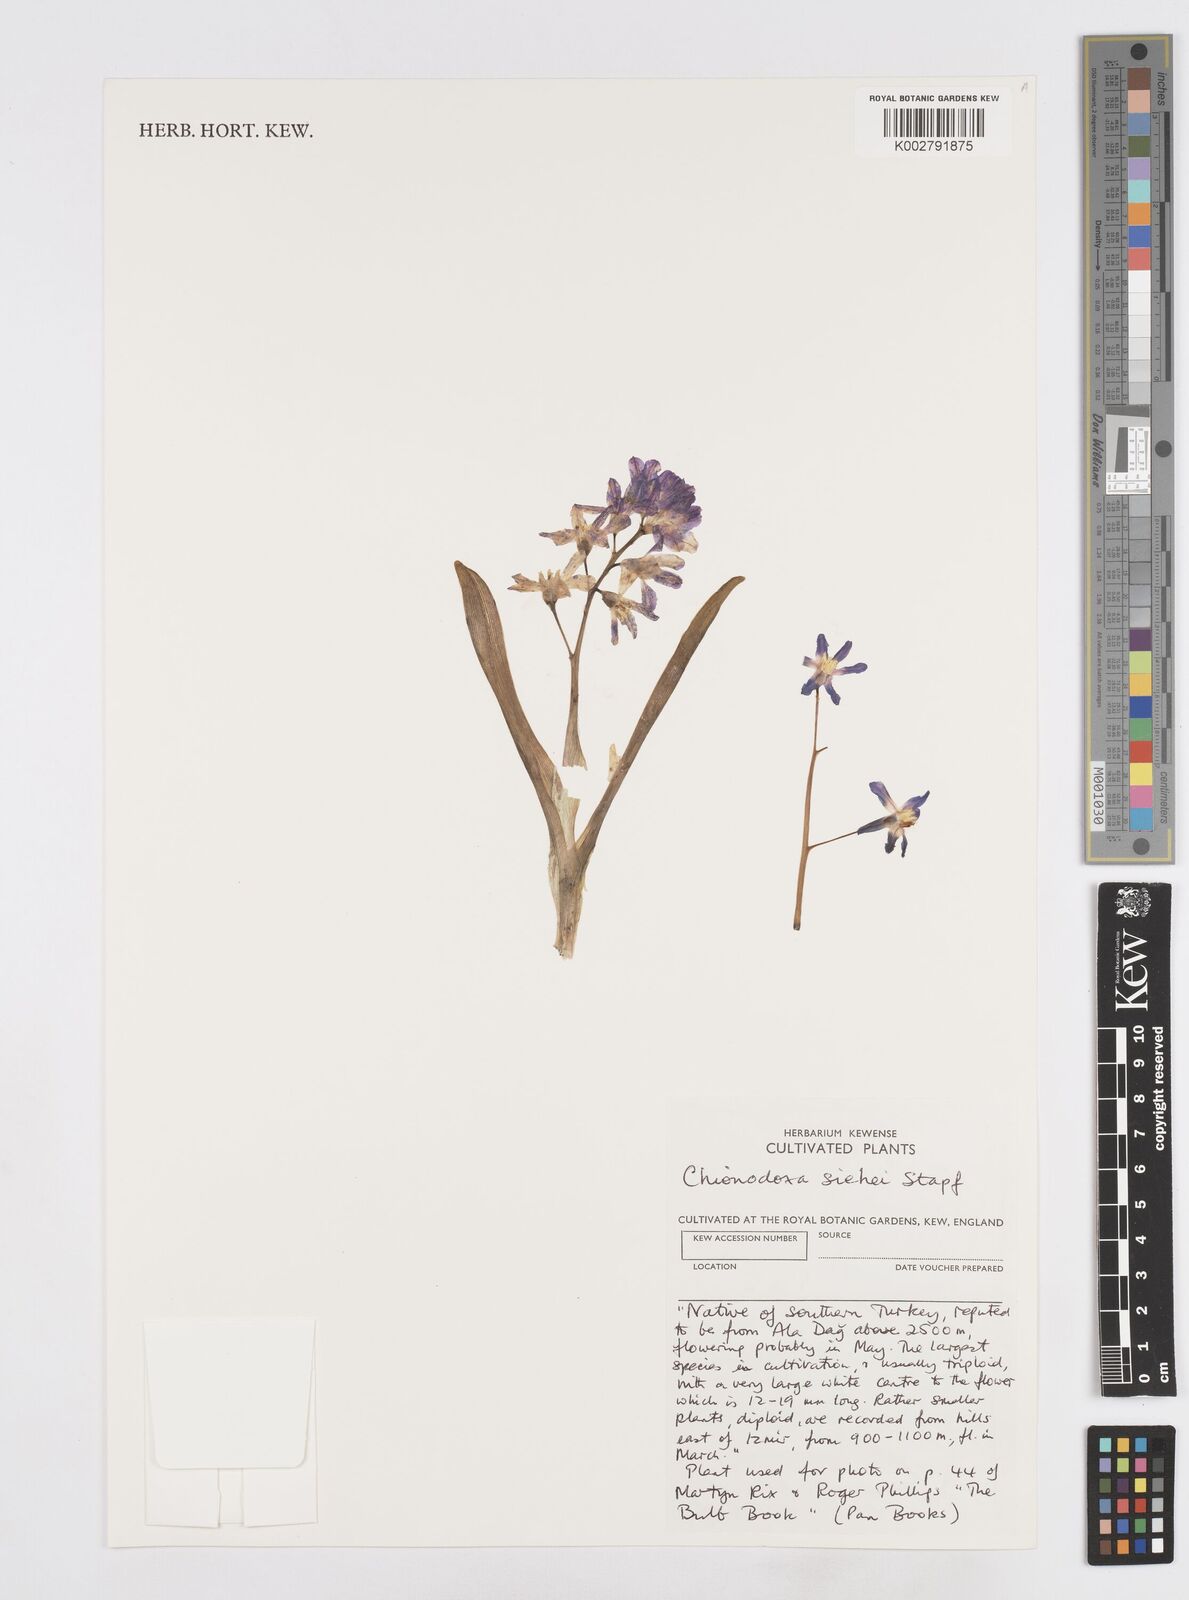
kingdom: Plantae
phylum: Tracheophyta
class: Liliopsida
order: Asparagales
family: Asparagaceae
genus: Scilla
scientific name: Scilla
